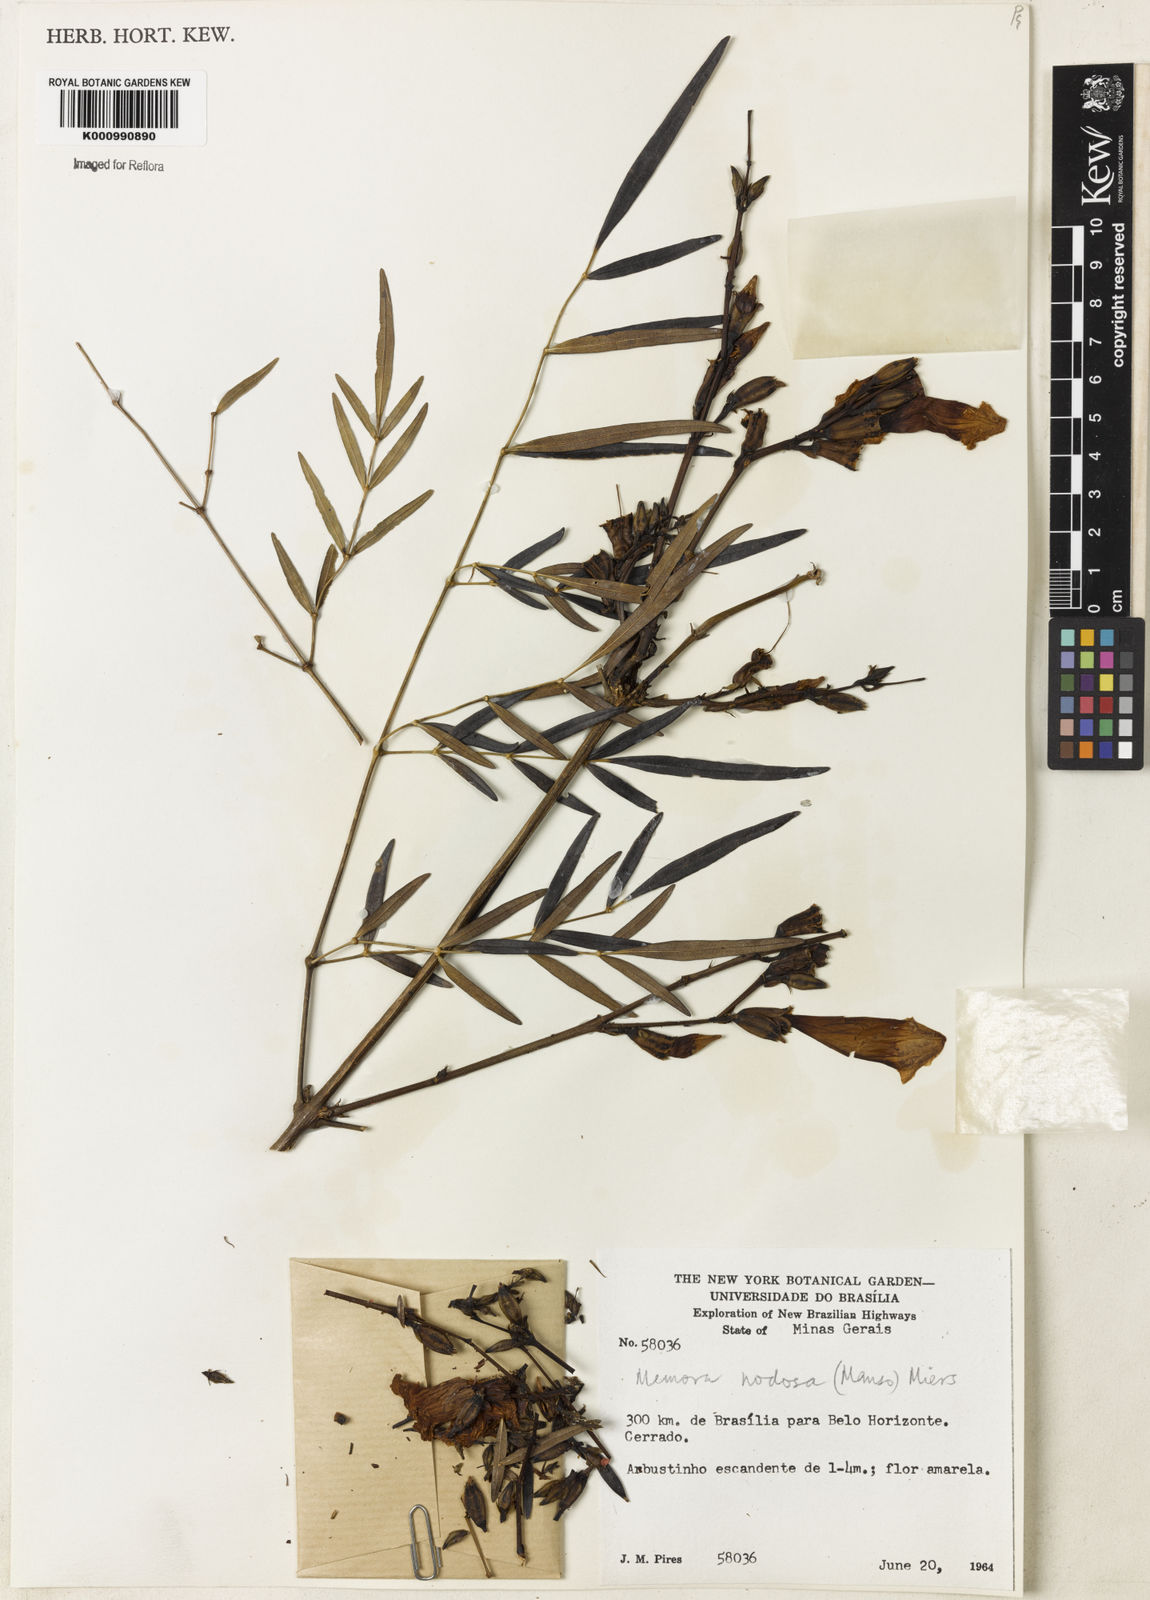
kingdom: Plantae
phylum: Tracheophyta
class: Magnoliopsida
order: Lamiales
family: Bignoniaceae
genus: Adenocalymma
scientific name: Adenocalymma nodosum
